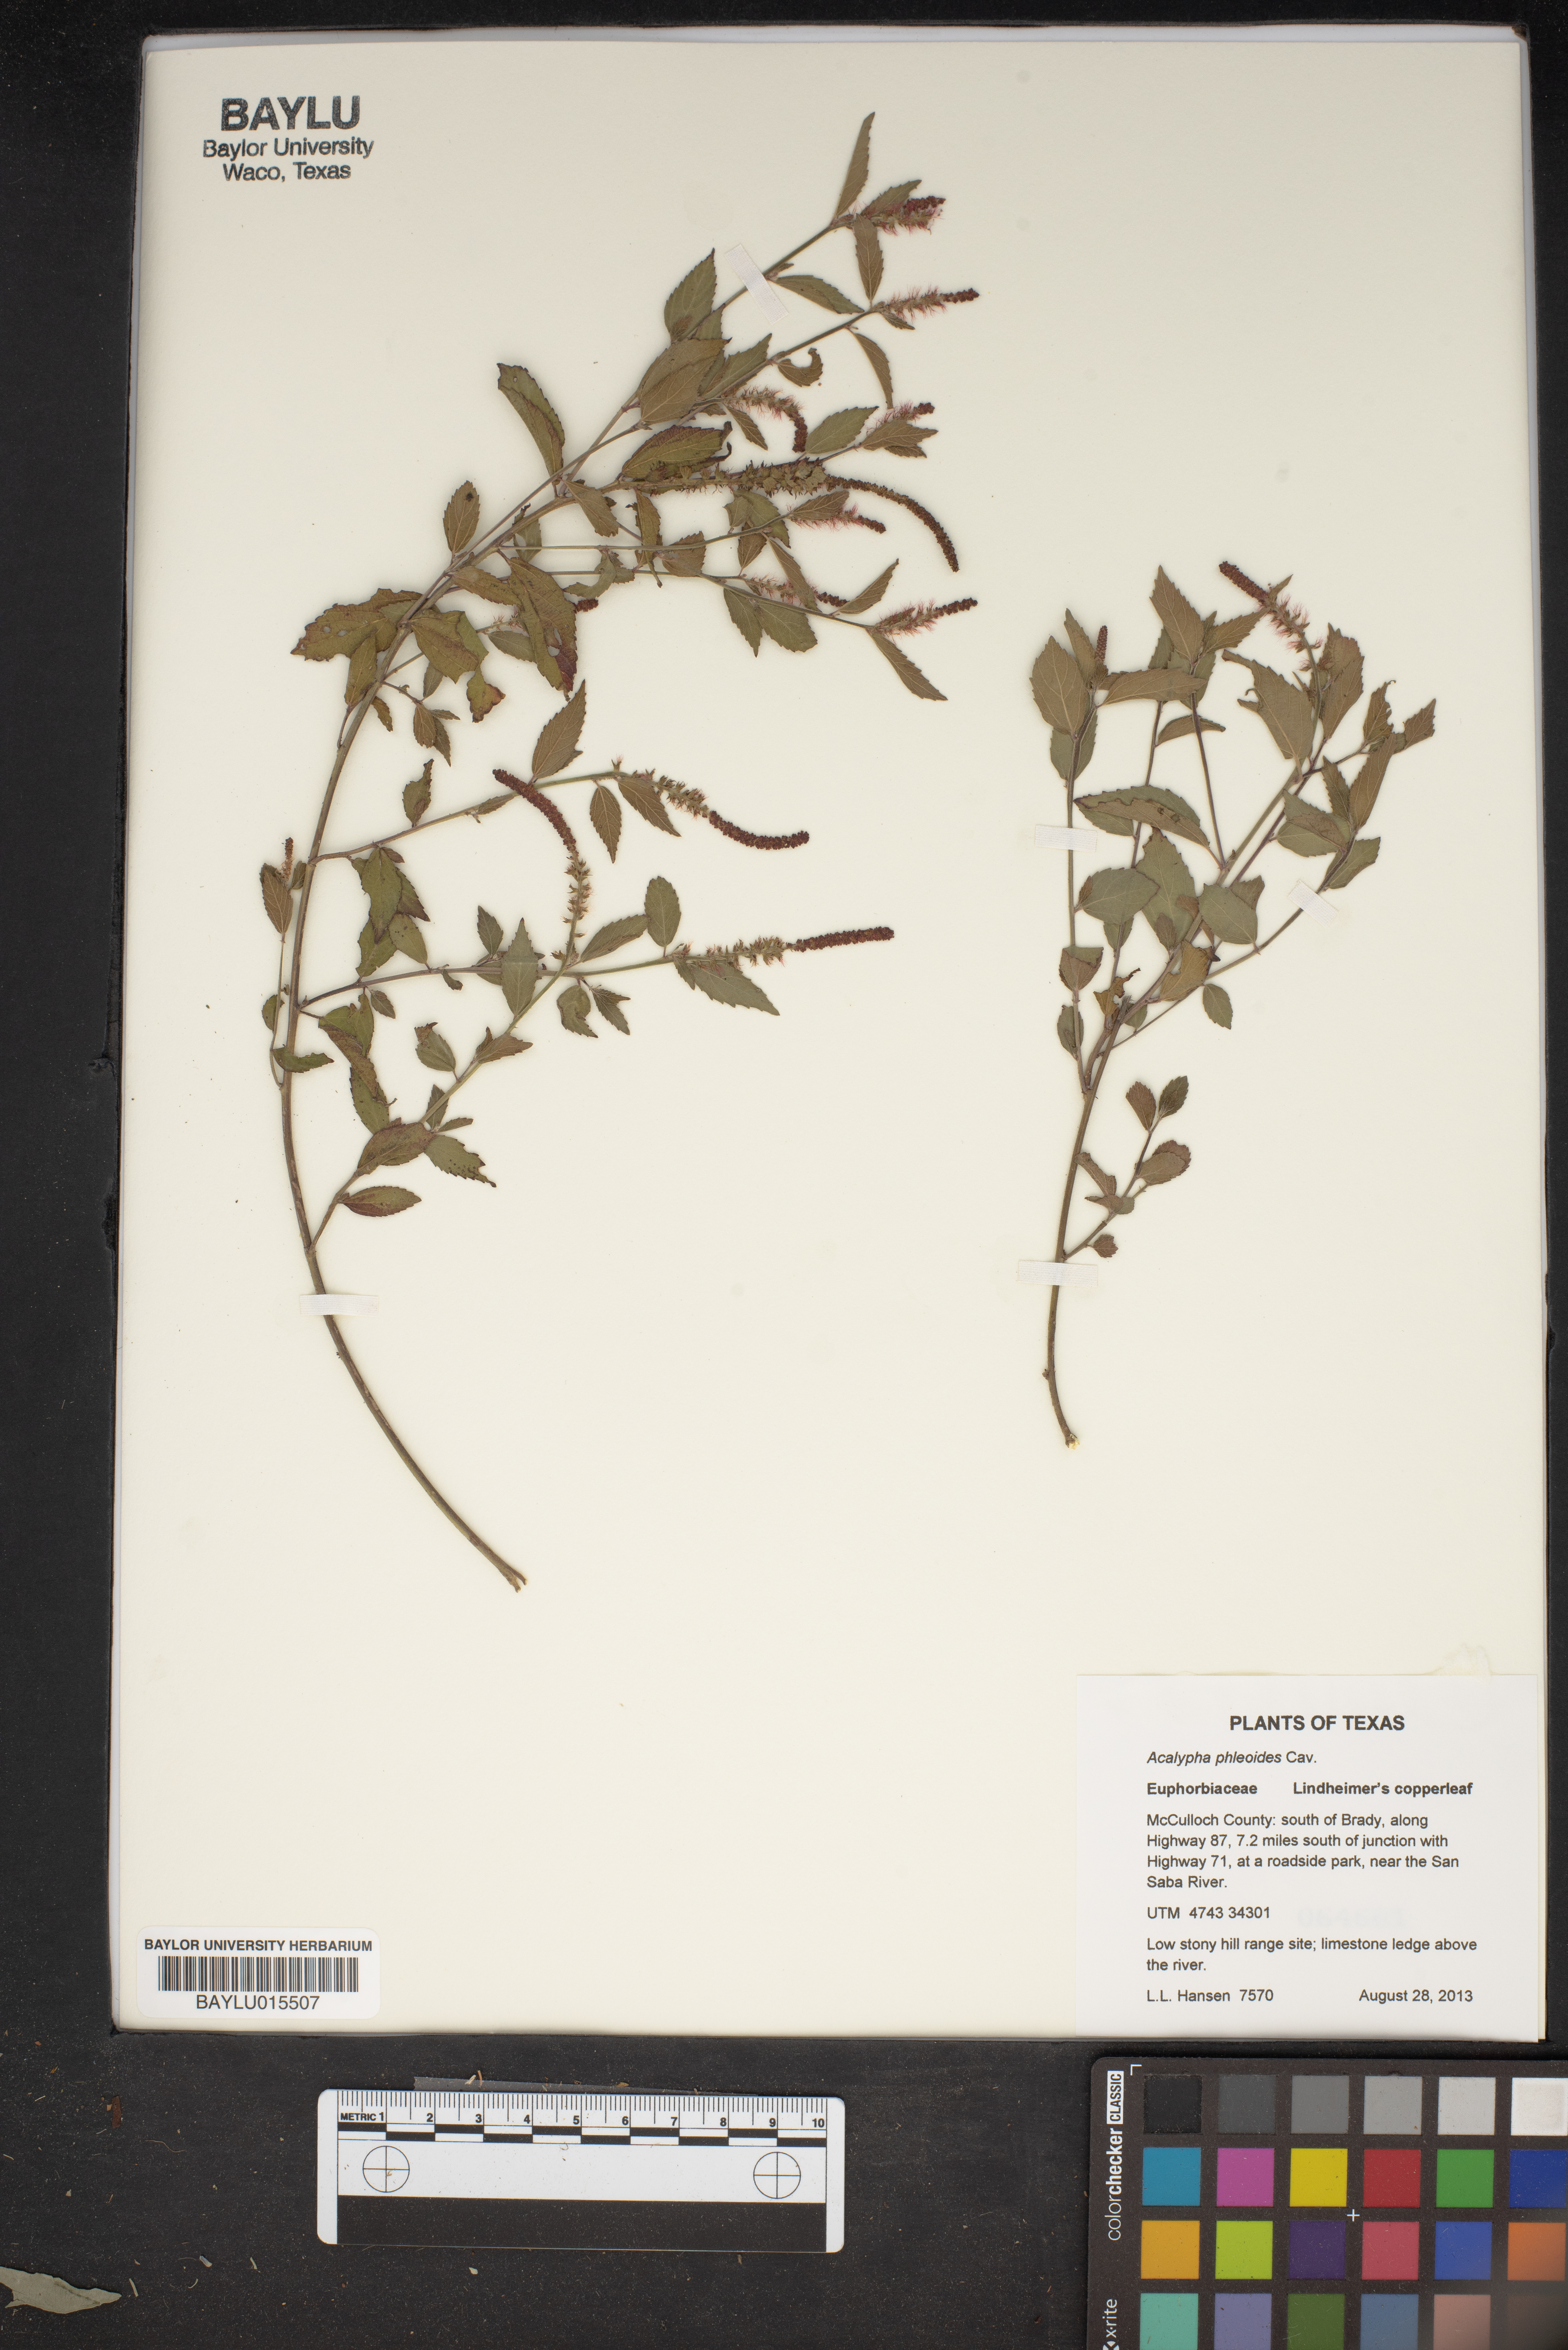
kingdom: Plantae
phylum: Tracheophyta
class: Magnoliopsida
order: Malpighiales
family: Euphorbiaceae
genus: Acalypha
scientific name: Acalypha phleoides
